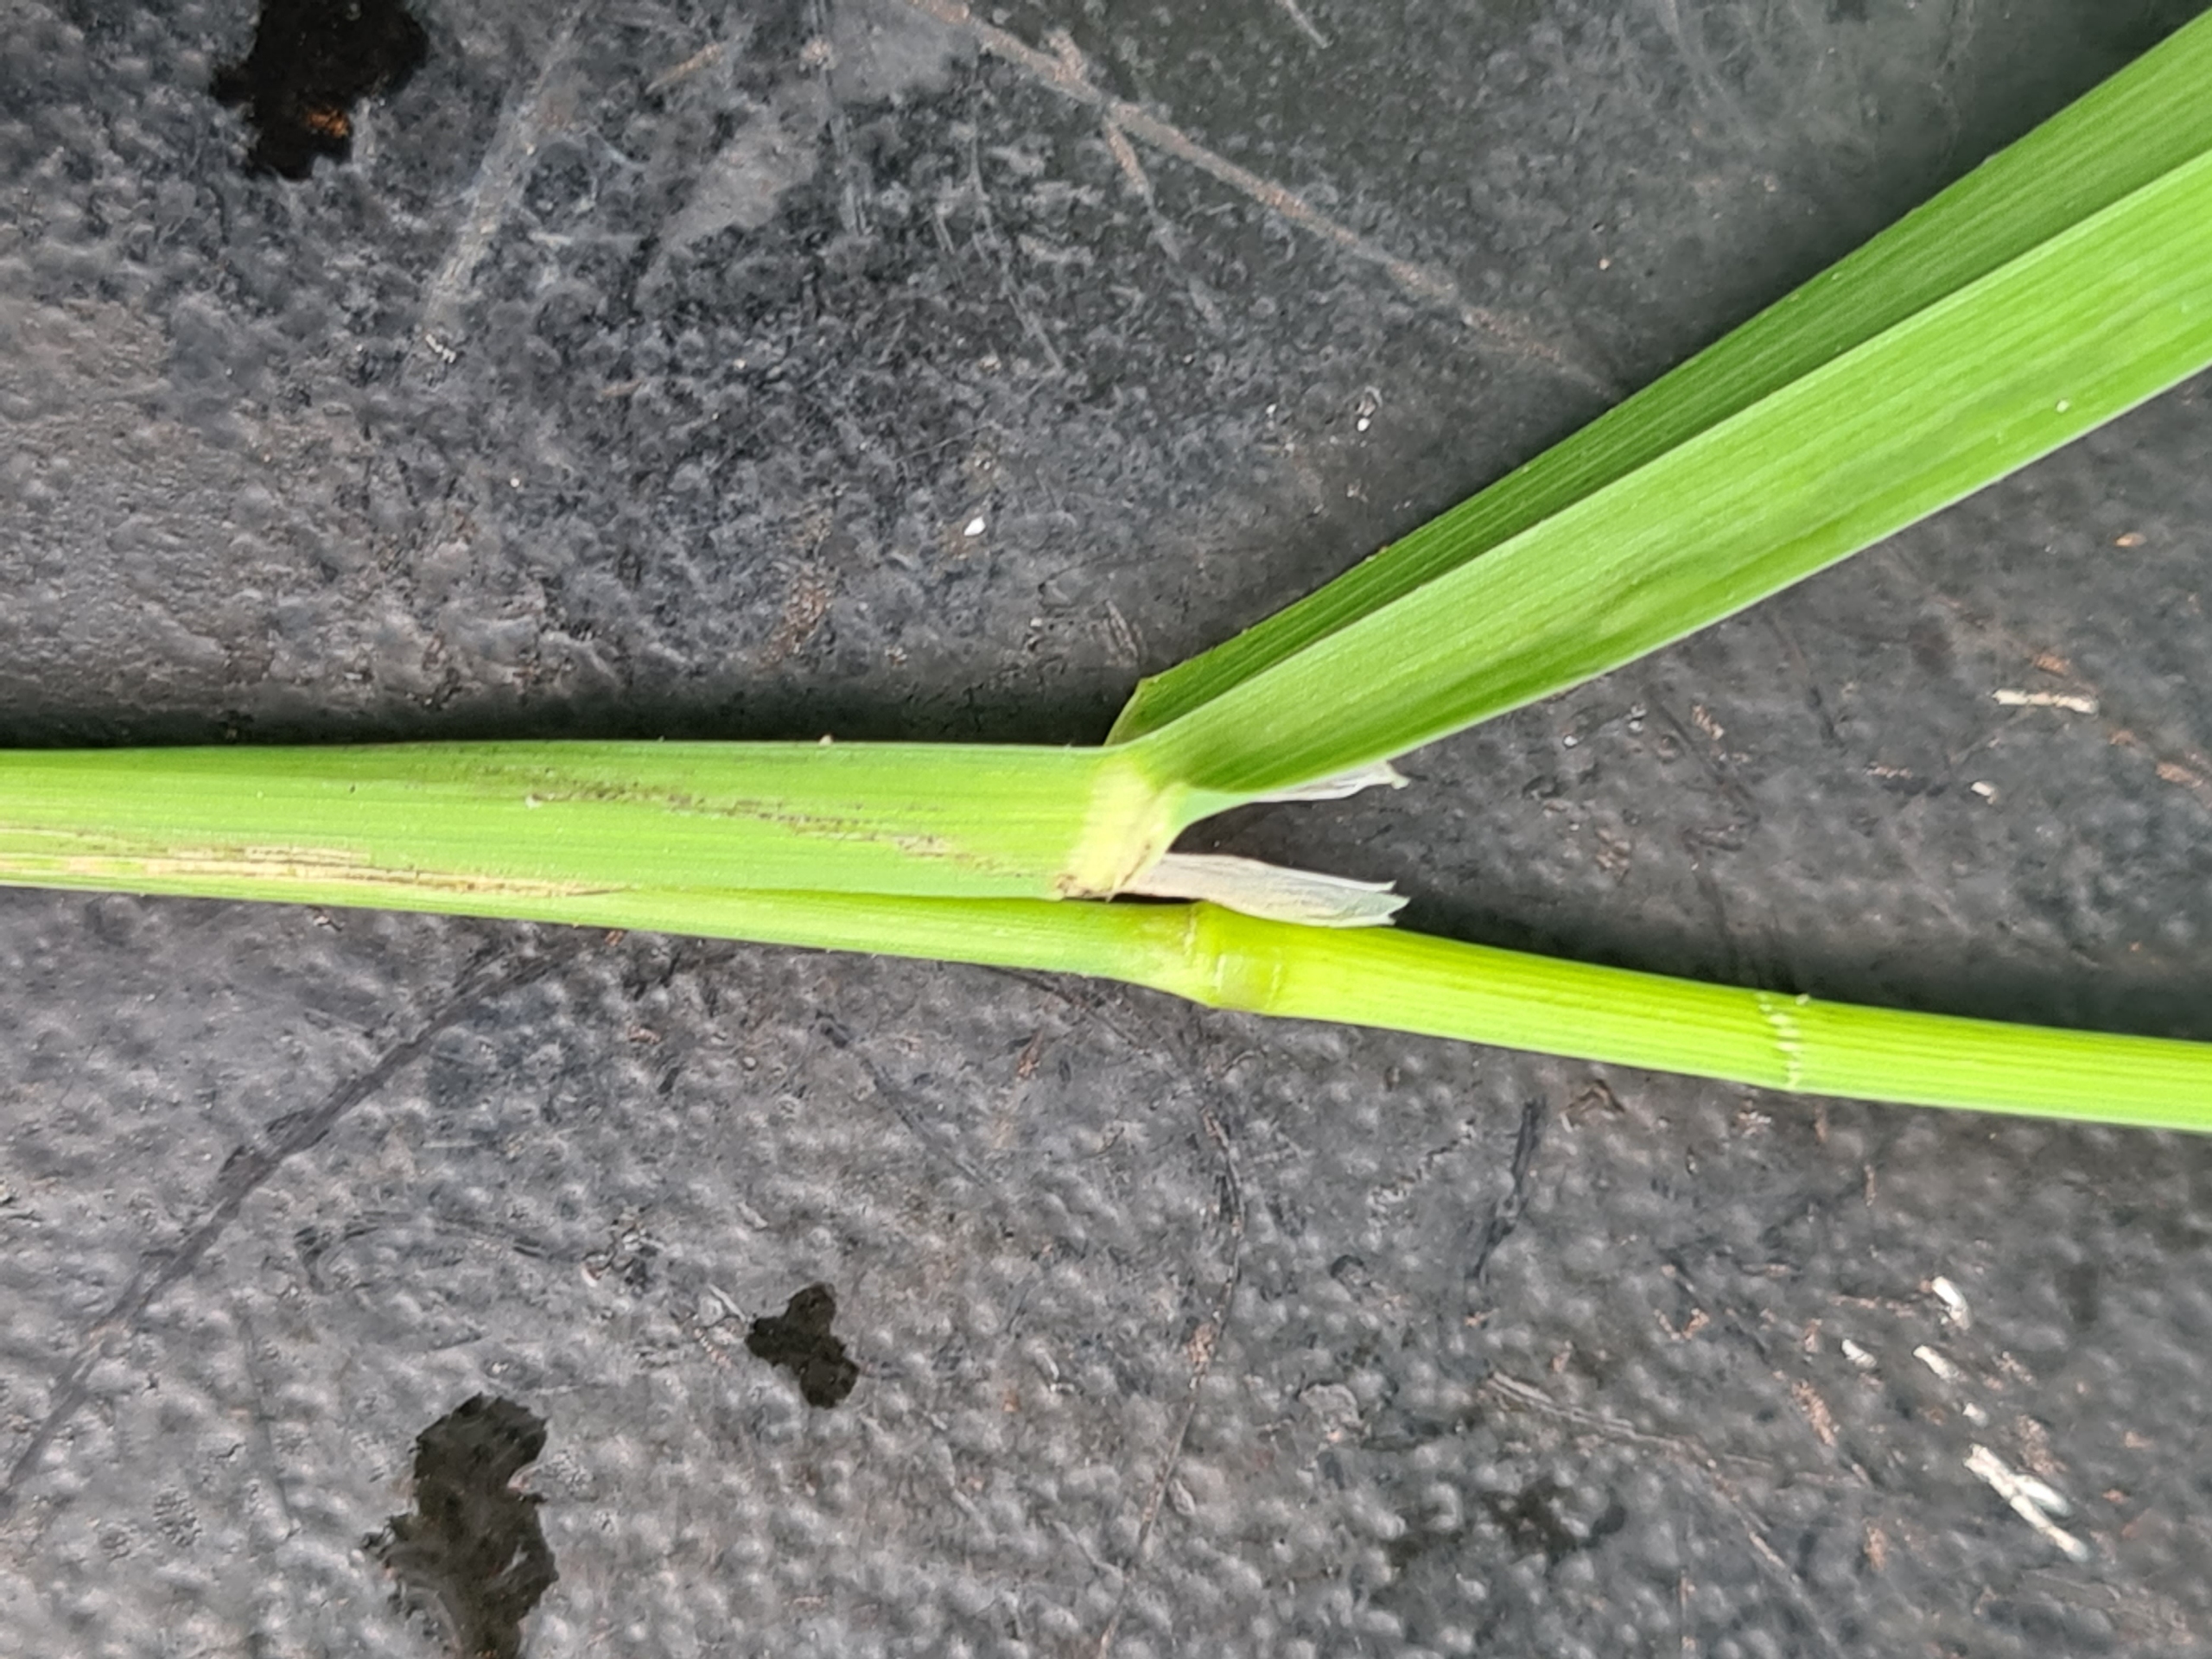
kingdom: Plantae
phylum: Tracheophyta
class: Liliopsida
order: Poales
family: Poaceae
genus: Dactylis
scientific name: Dactylis glomerata
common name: Skov-hundegræs
